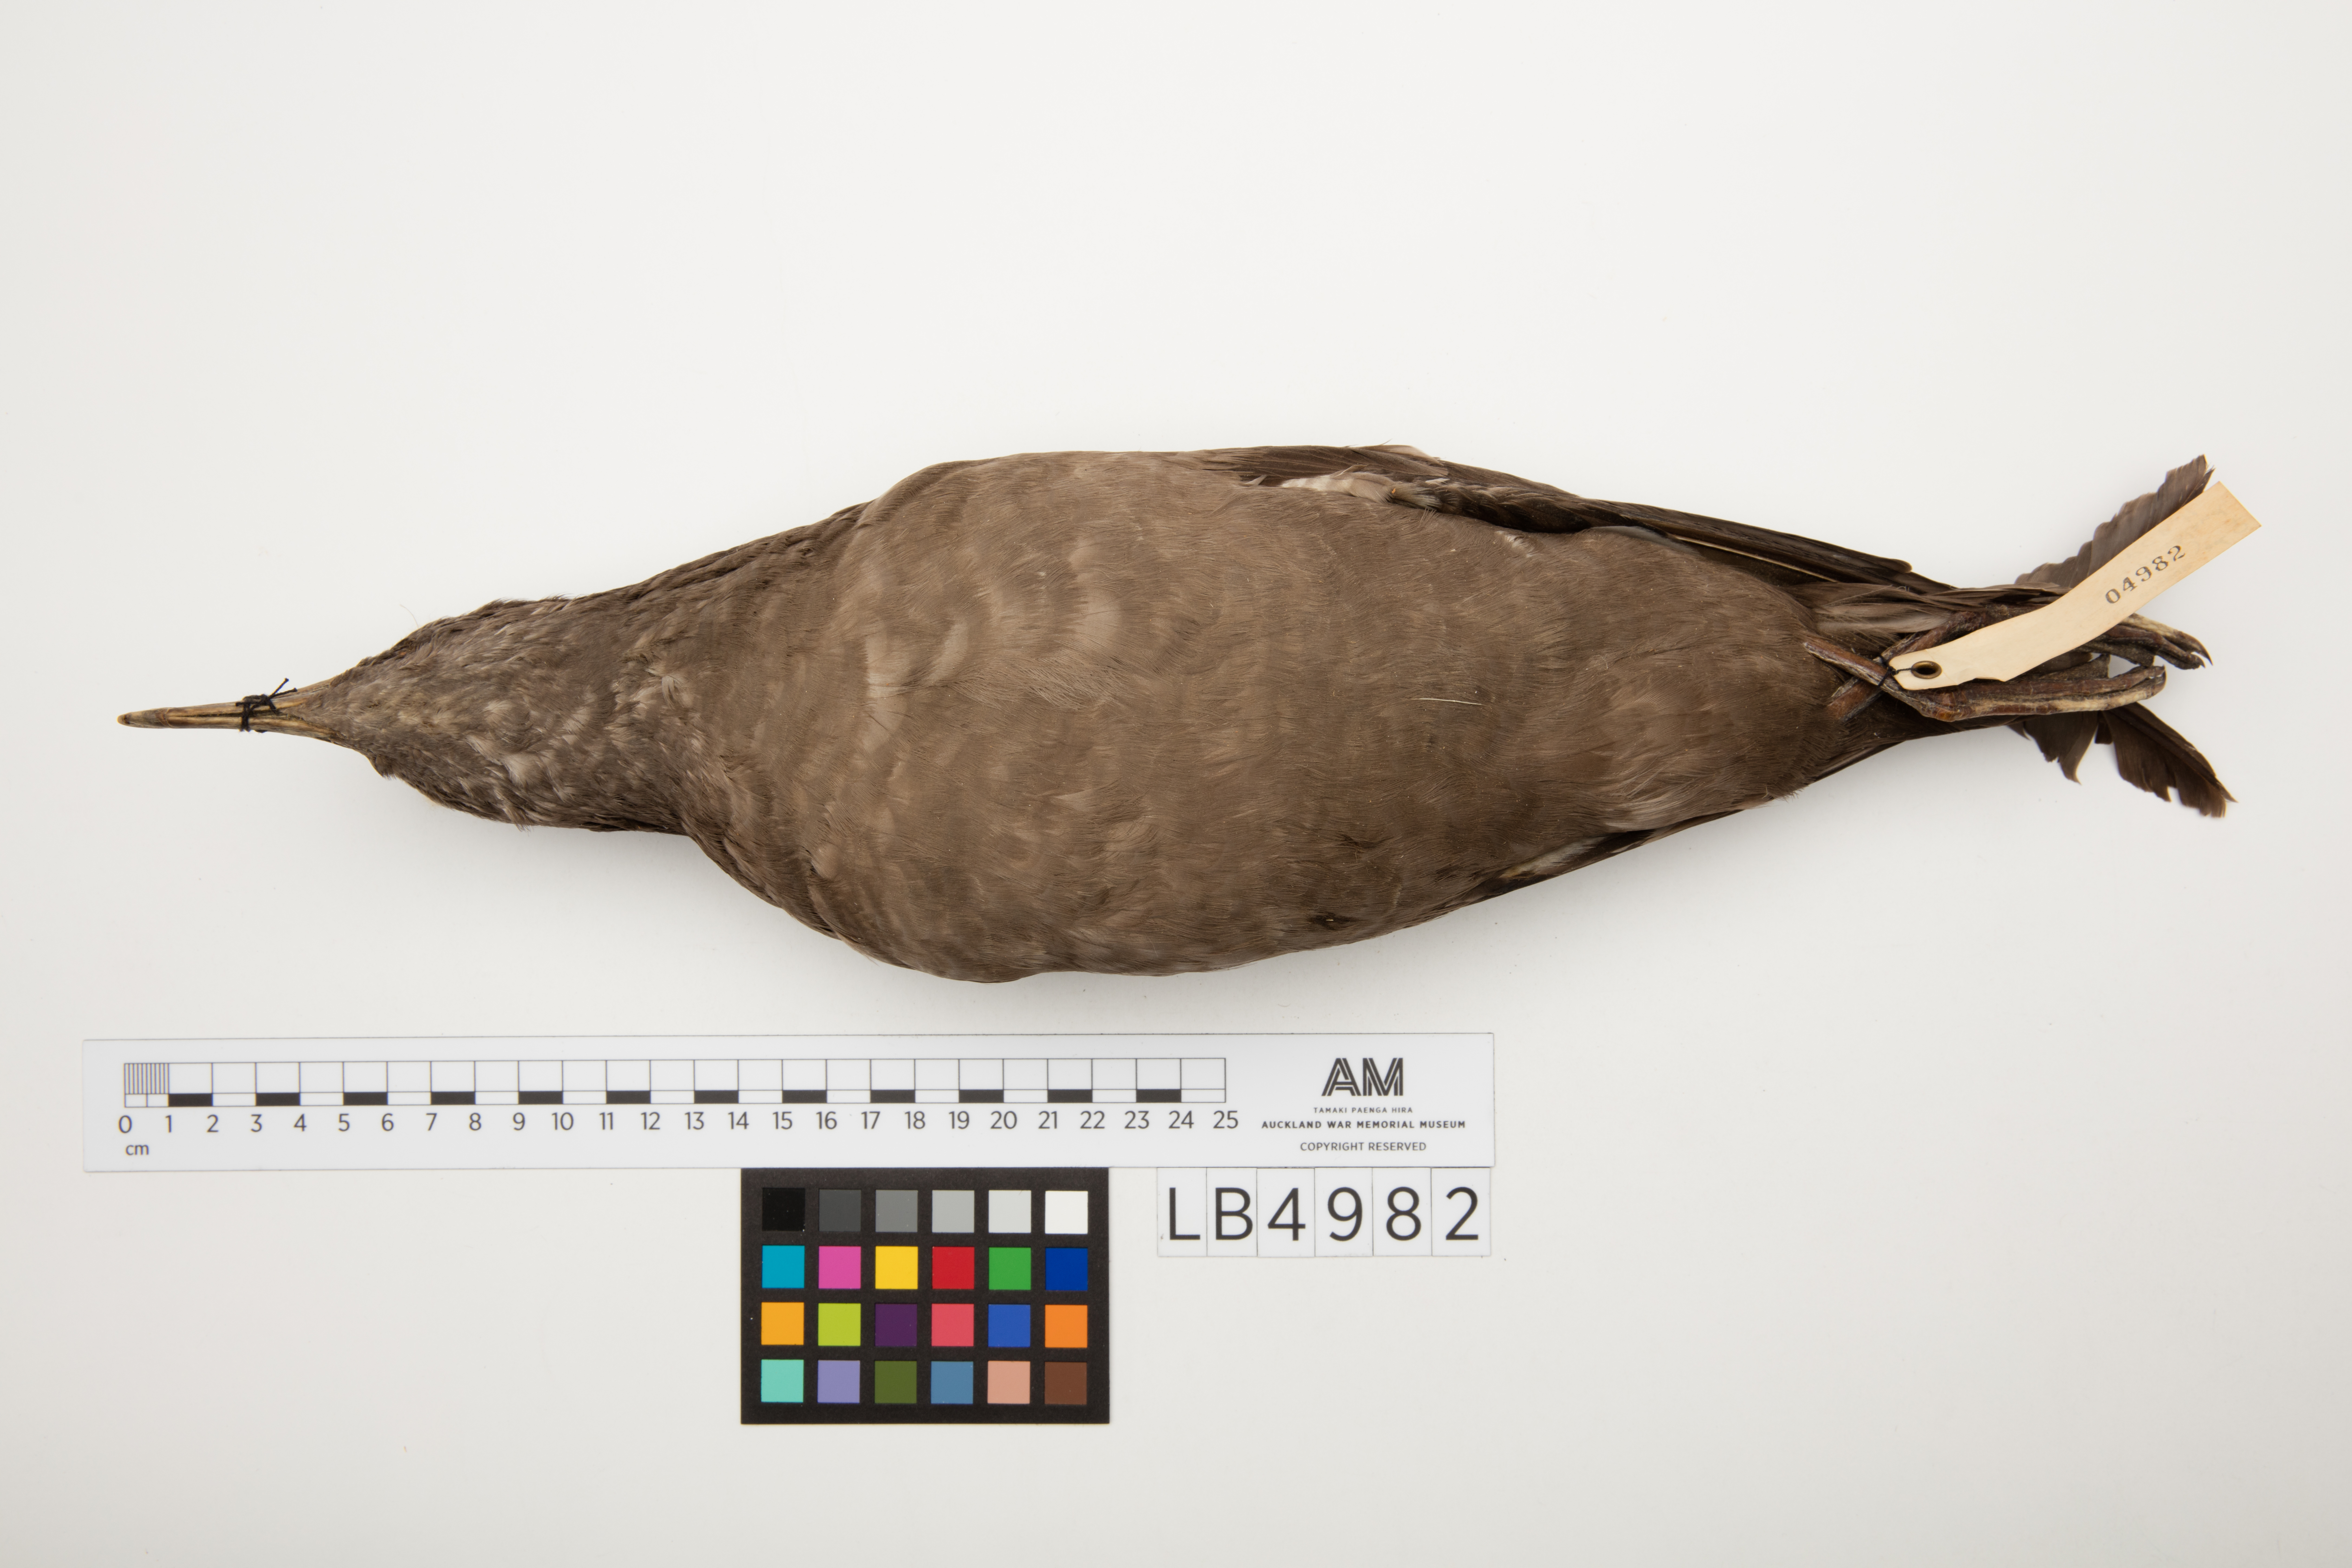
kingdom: Animalia
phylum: Chordata
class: Aves
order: Procellariiformes
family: Procellariidae
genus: Puffinus
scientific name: Puffinus griseus
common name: Sooty shearwater
